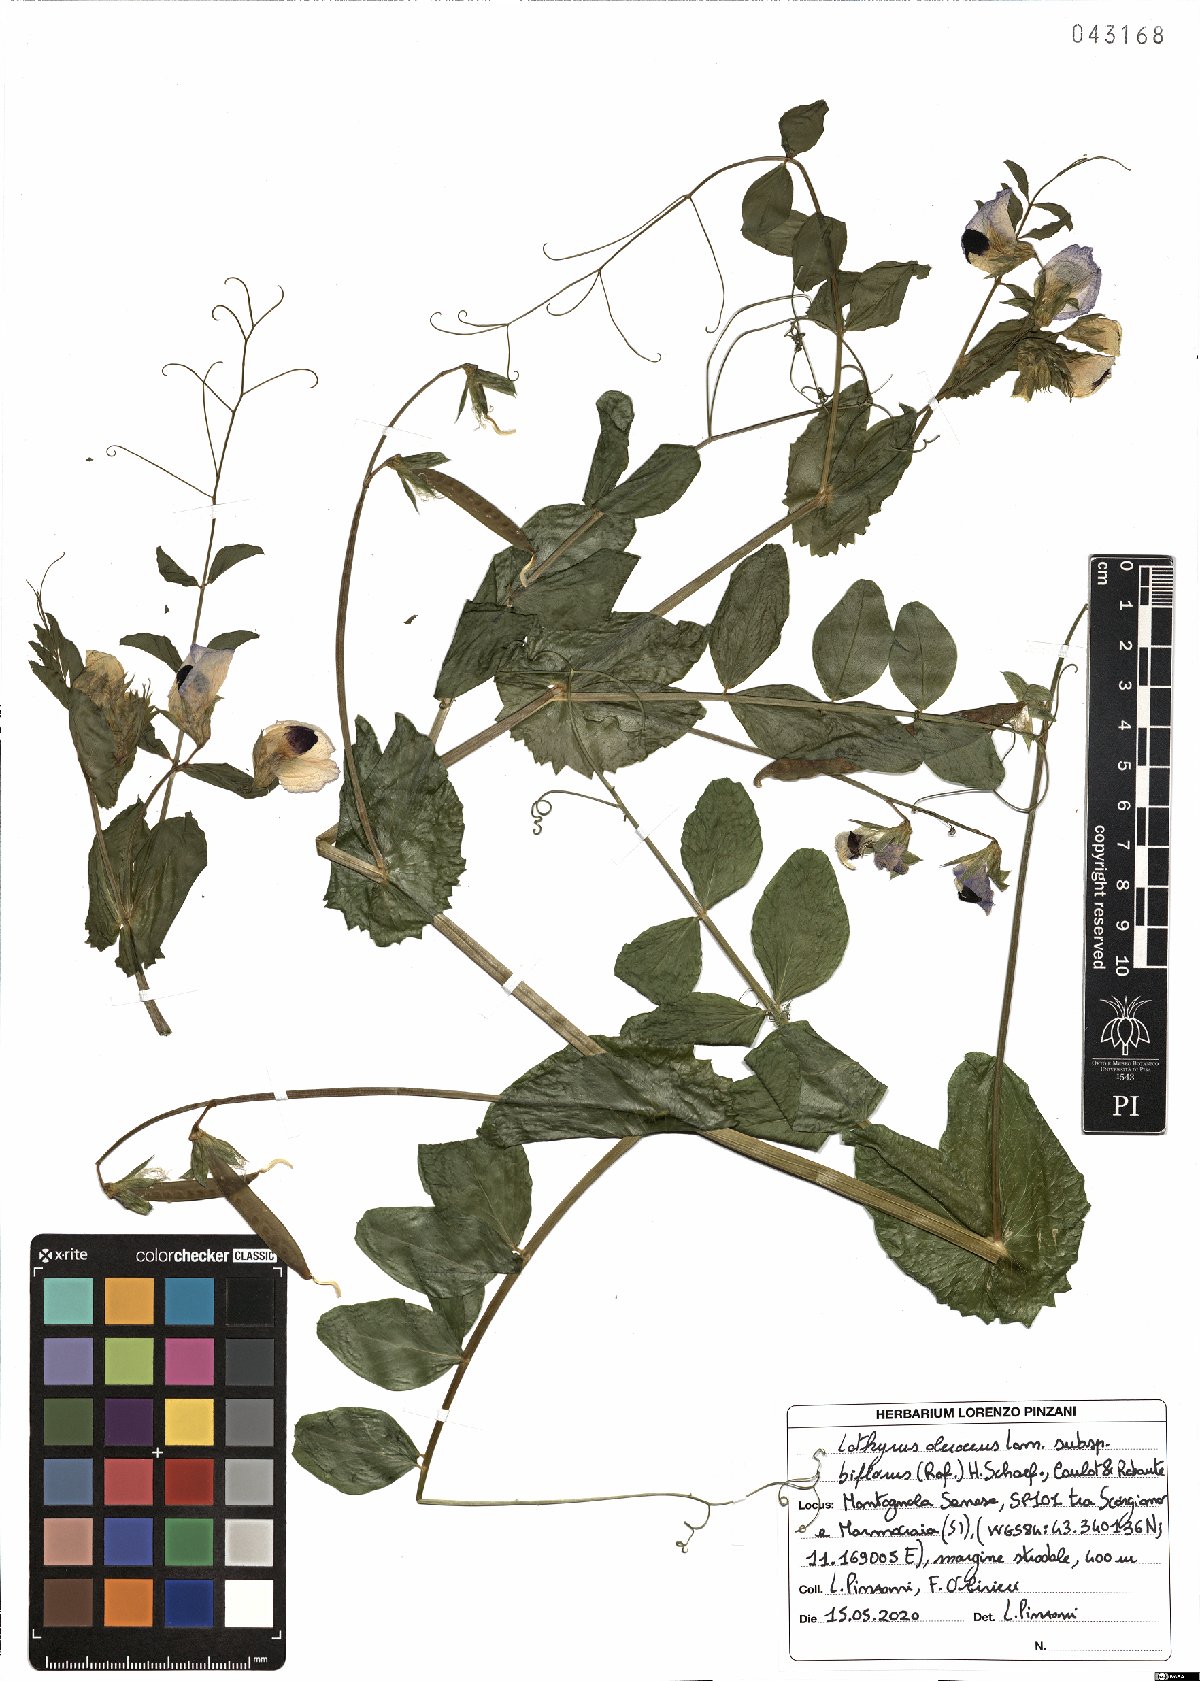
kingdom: Plantae
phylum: Tracheophyta
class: Magnoliopsida
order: Fabales
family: Fabaceae
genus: Lathyrus
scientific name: Lathyrus oleraceus
